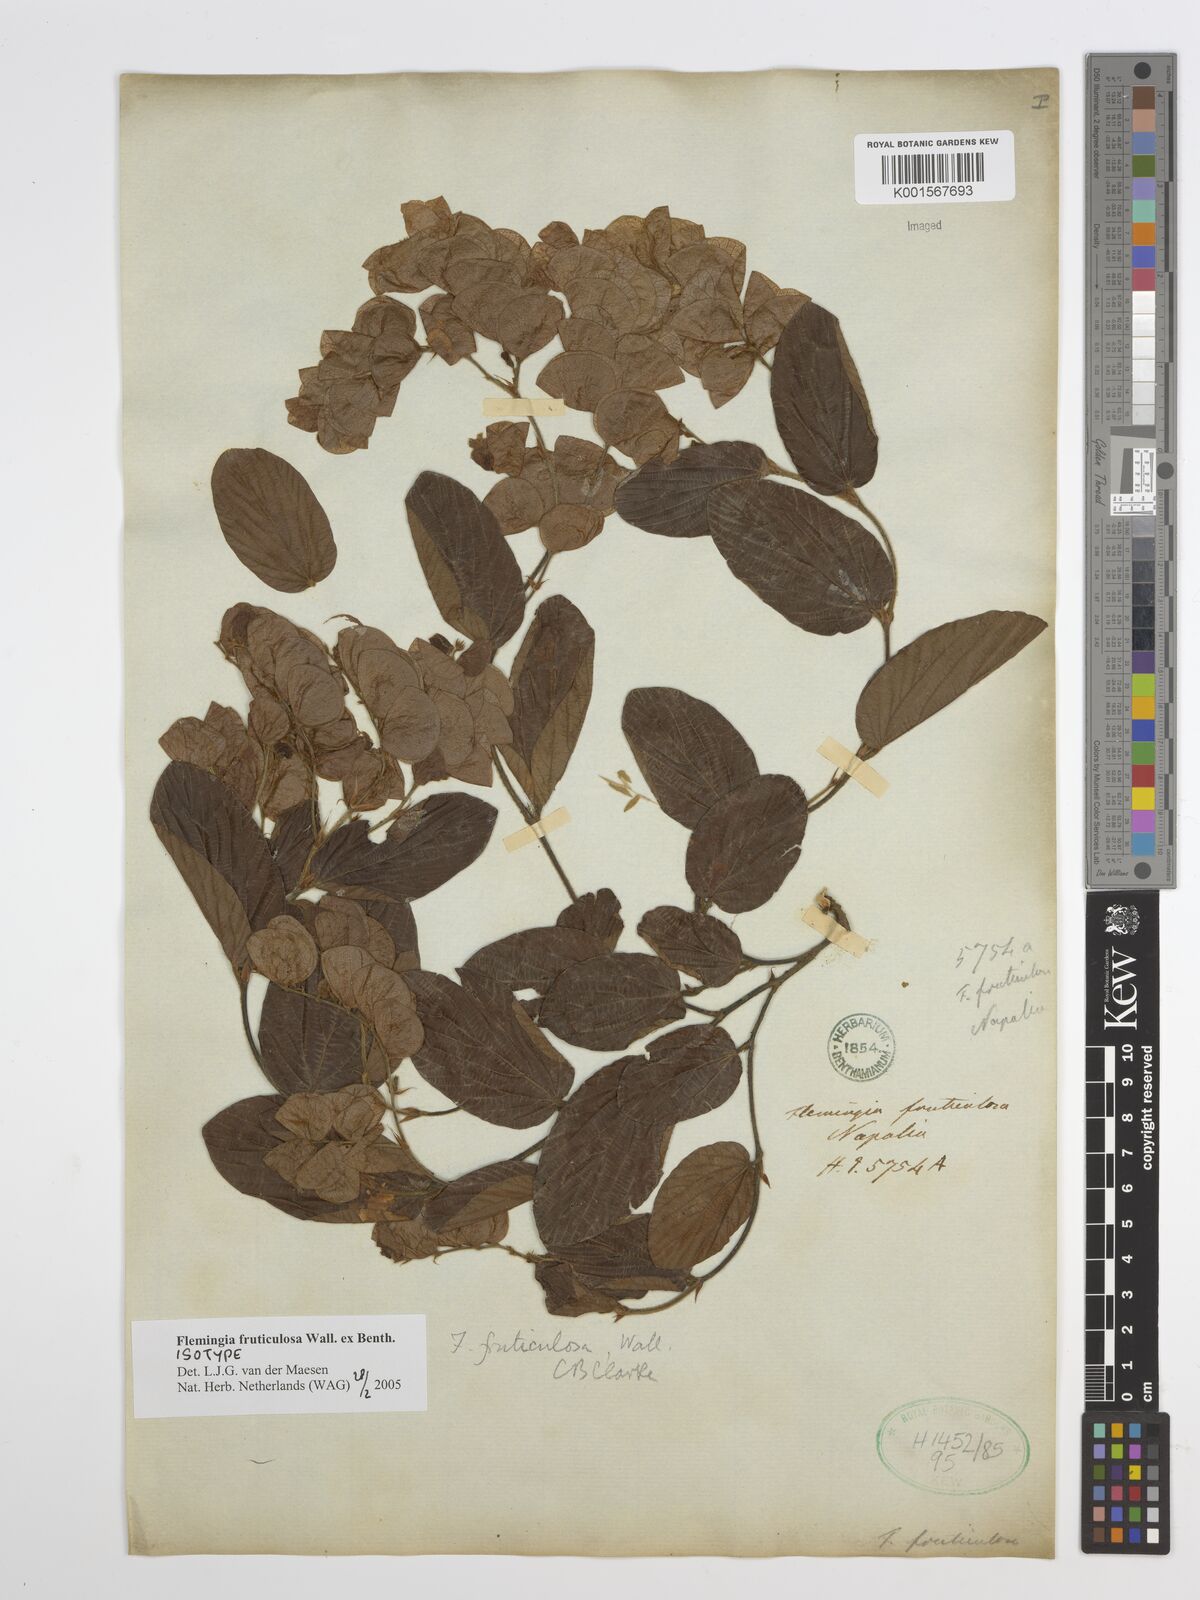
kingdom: Plantae
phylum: Tracheophyta
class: Magnoliopsida
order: Fabales
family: Fabaceae
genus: Flemingia
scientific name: Flemingia fruticulosa
